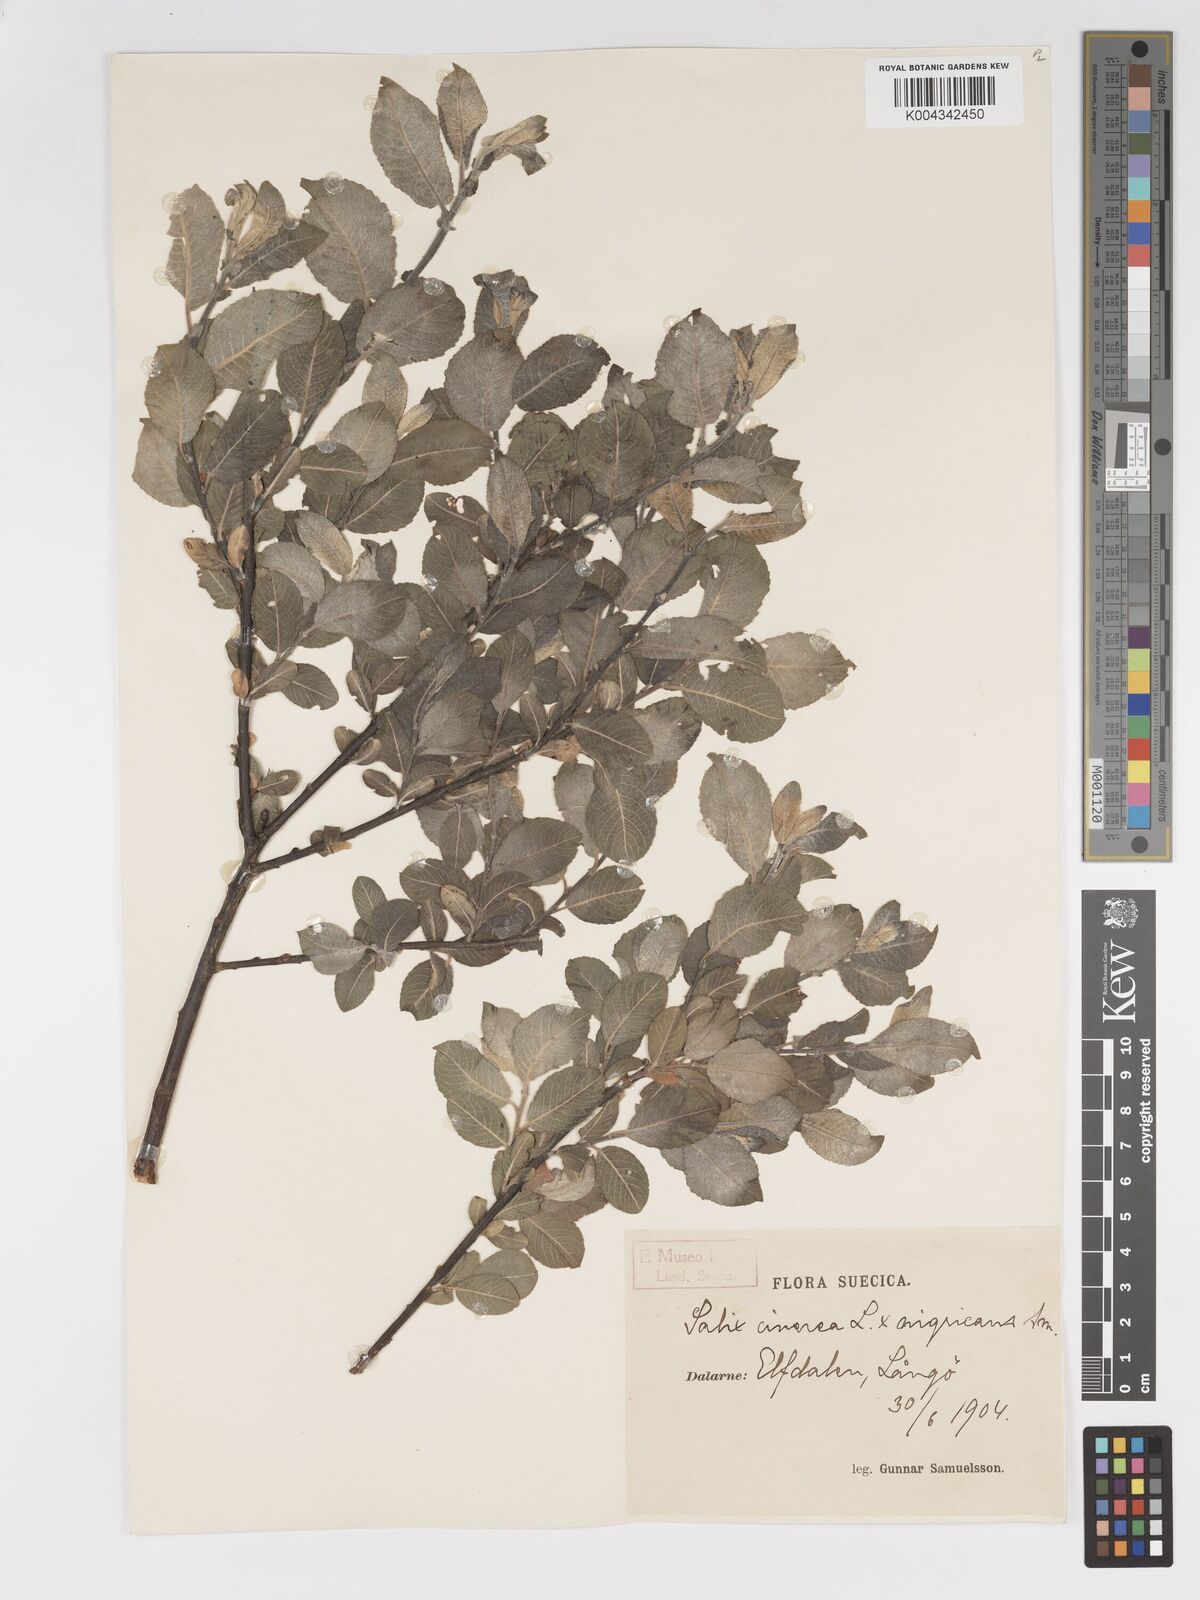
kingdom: Plantae
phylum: Tracheophyta
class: Magnoliopsida
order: Malpighiales
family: Salicaceae
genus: Salix
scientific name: Salix
